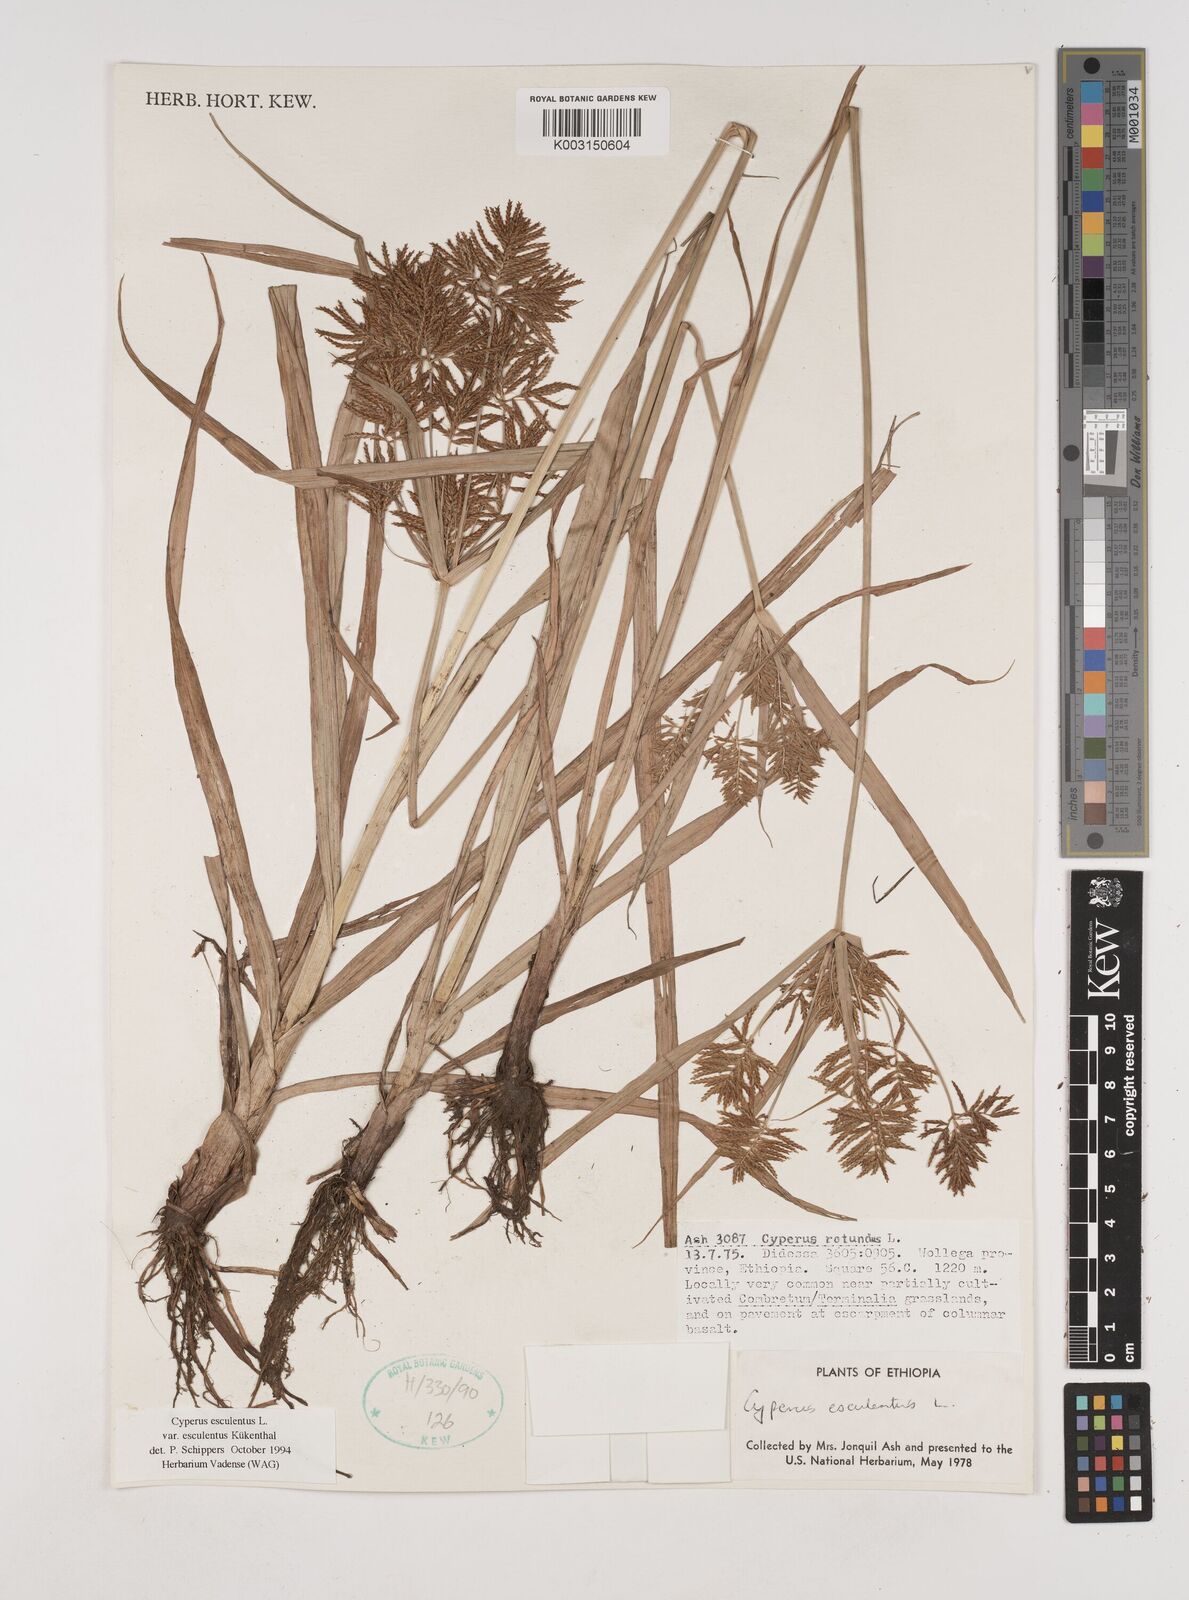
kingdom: Plantae
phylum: Tracheophyta
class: Liliopsida
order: Poales
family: Cyperaceae
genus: Cyperus
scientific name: Cyperus esculentus
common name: Yellow nutsedge
